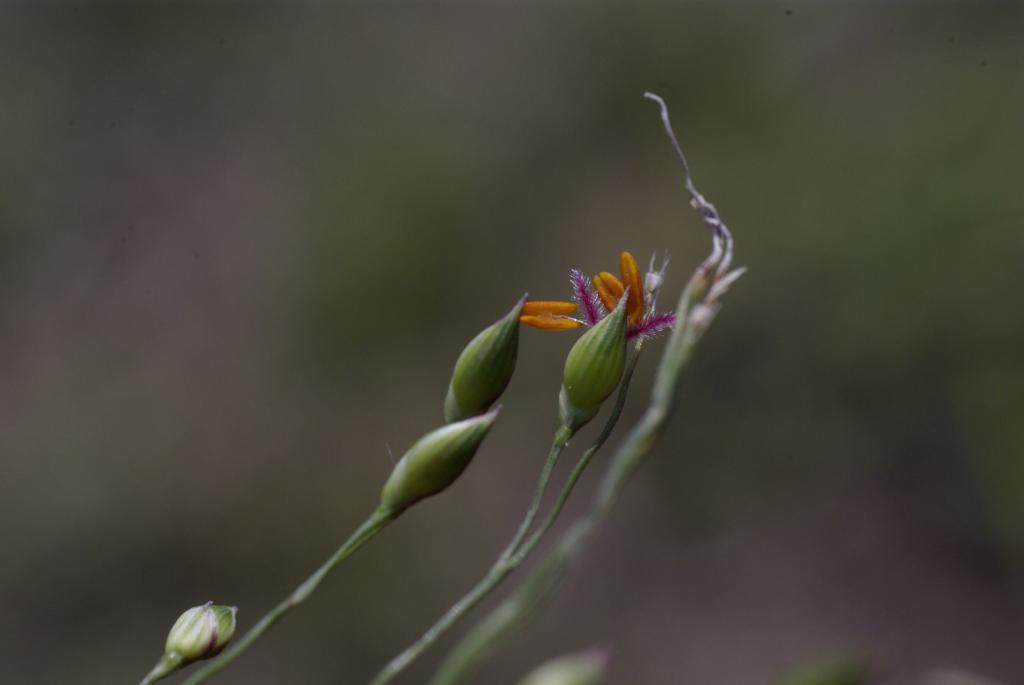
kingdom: Plantae
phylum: Tracheophyta
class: Liliopsida
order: Poales
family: Poaceae
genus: Panicum
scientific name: Panicum curviflorum
